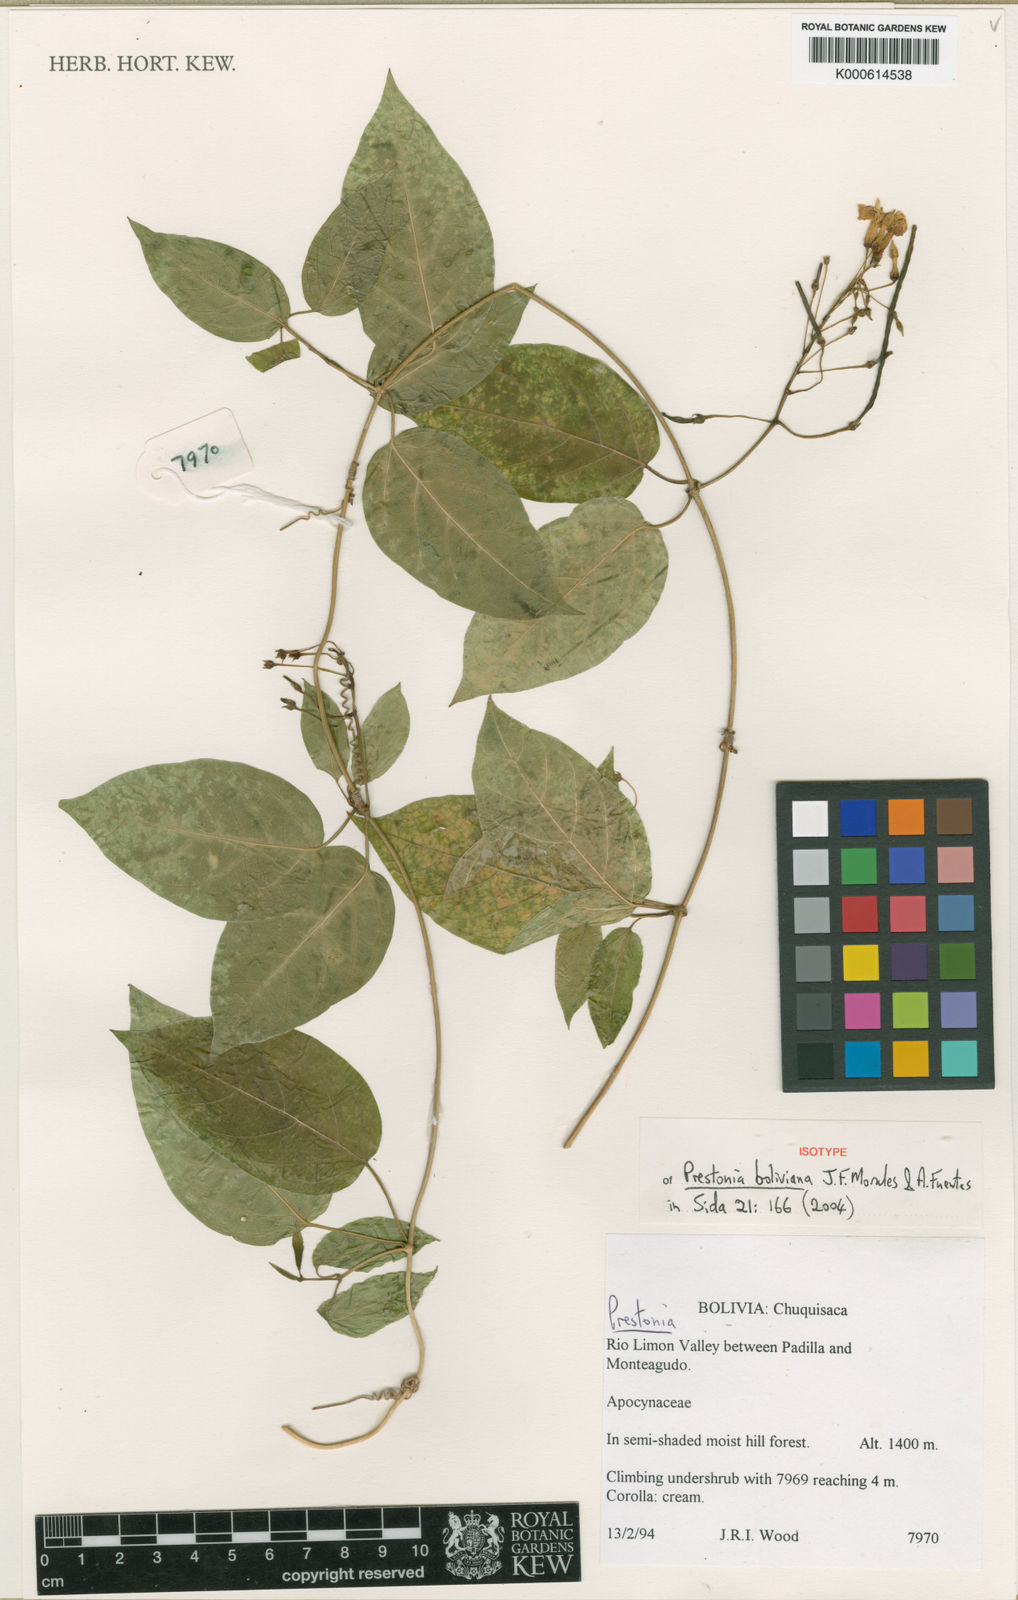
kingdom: Plantae
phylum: Tracheophyta
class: Magnoliopsida
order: Gentianales
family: Apocynaceae
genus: Prestonia
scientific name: Prestonia boliviana
